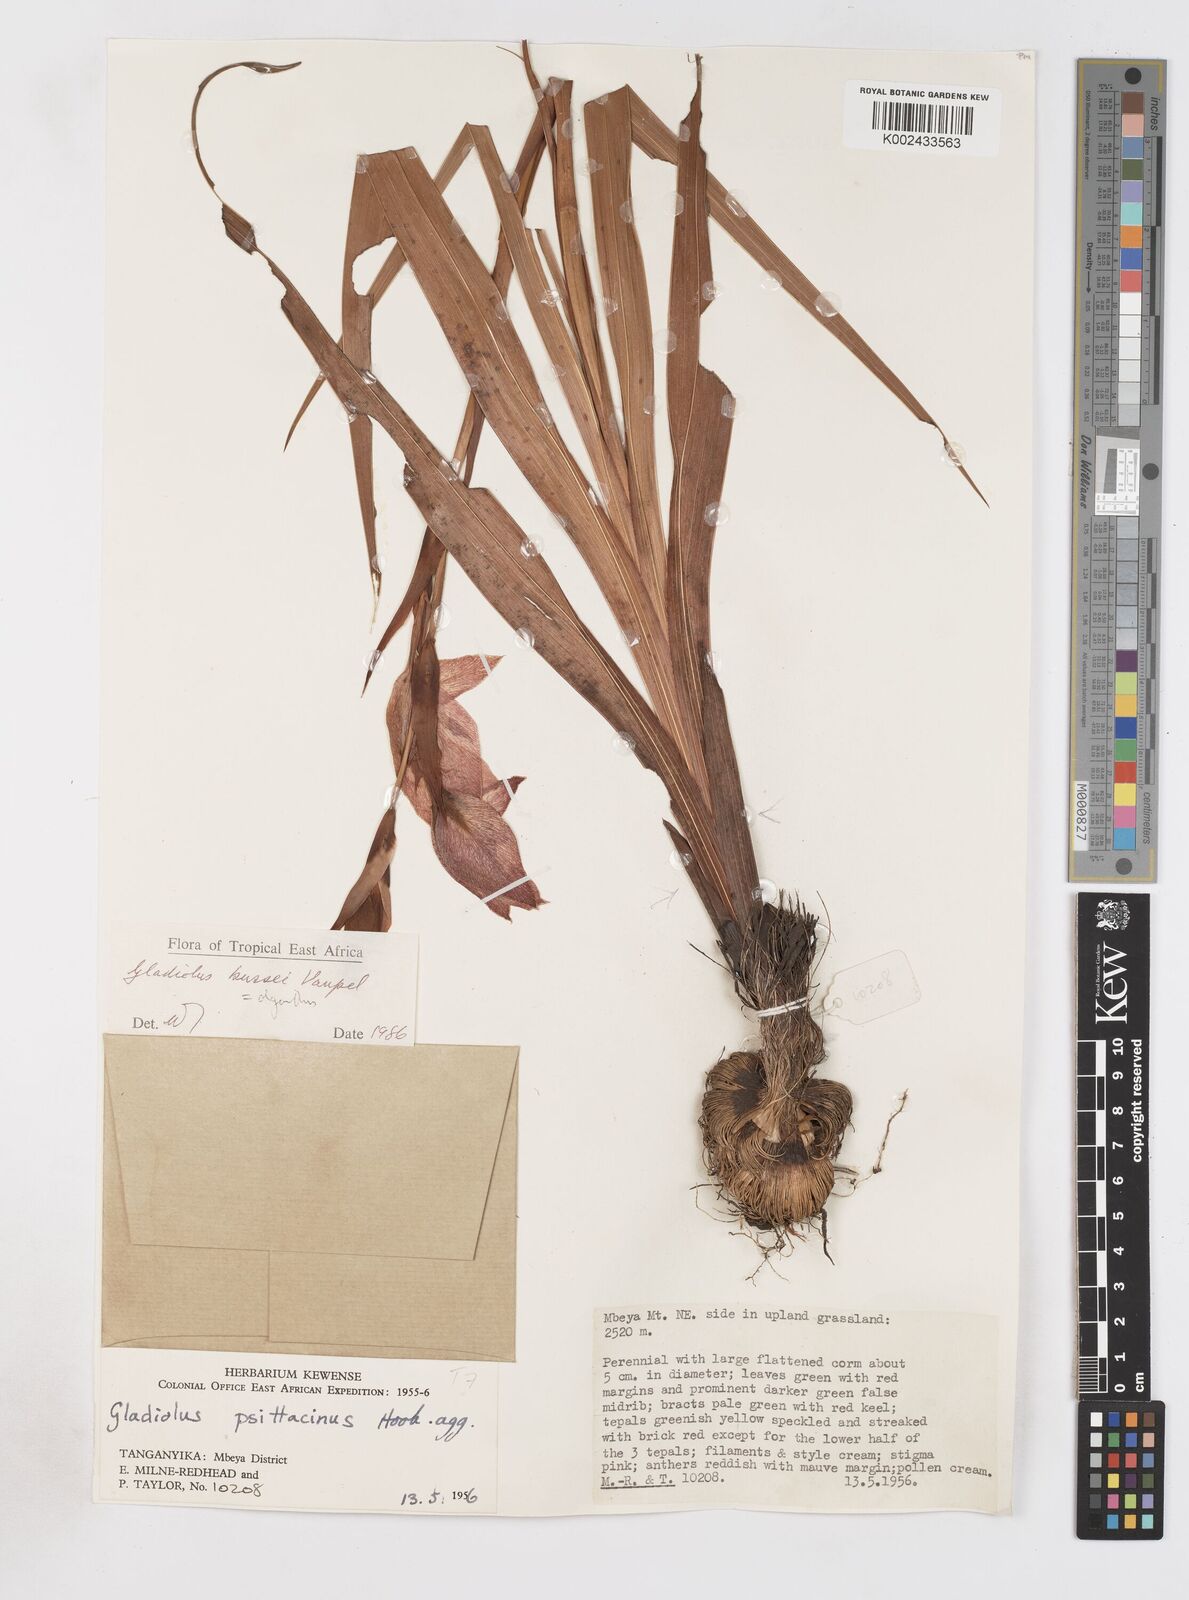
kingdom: Plantae
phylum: Tracheophyta
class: Liliopsida
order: Asparagales
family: Iridaceae
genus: Gladiolus
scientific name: Gladiolus oliganthus
